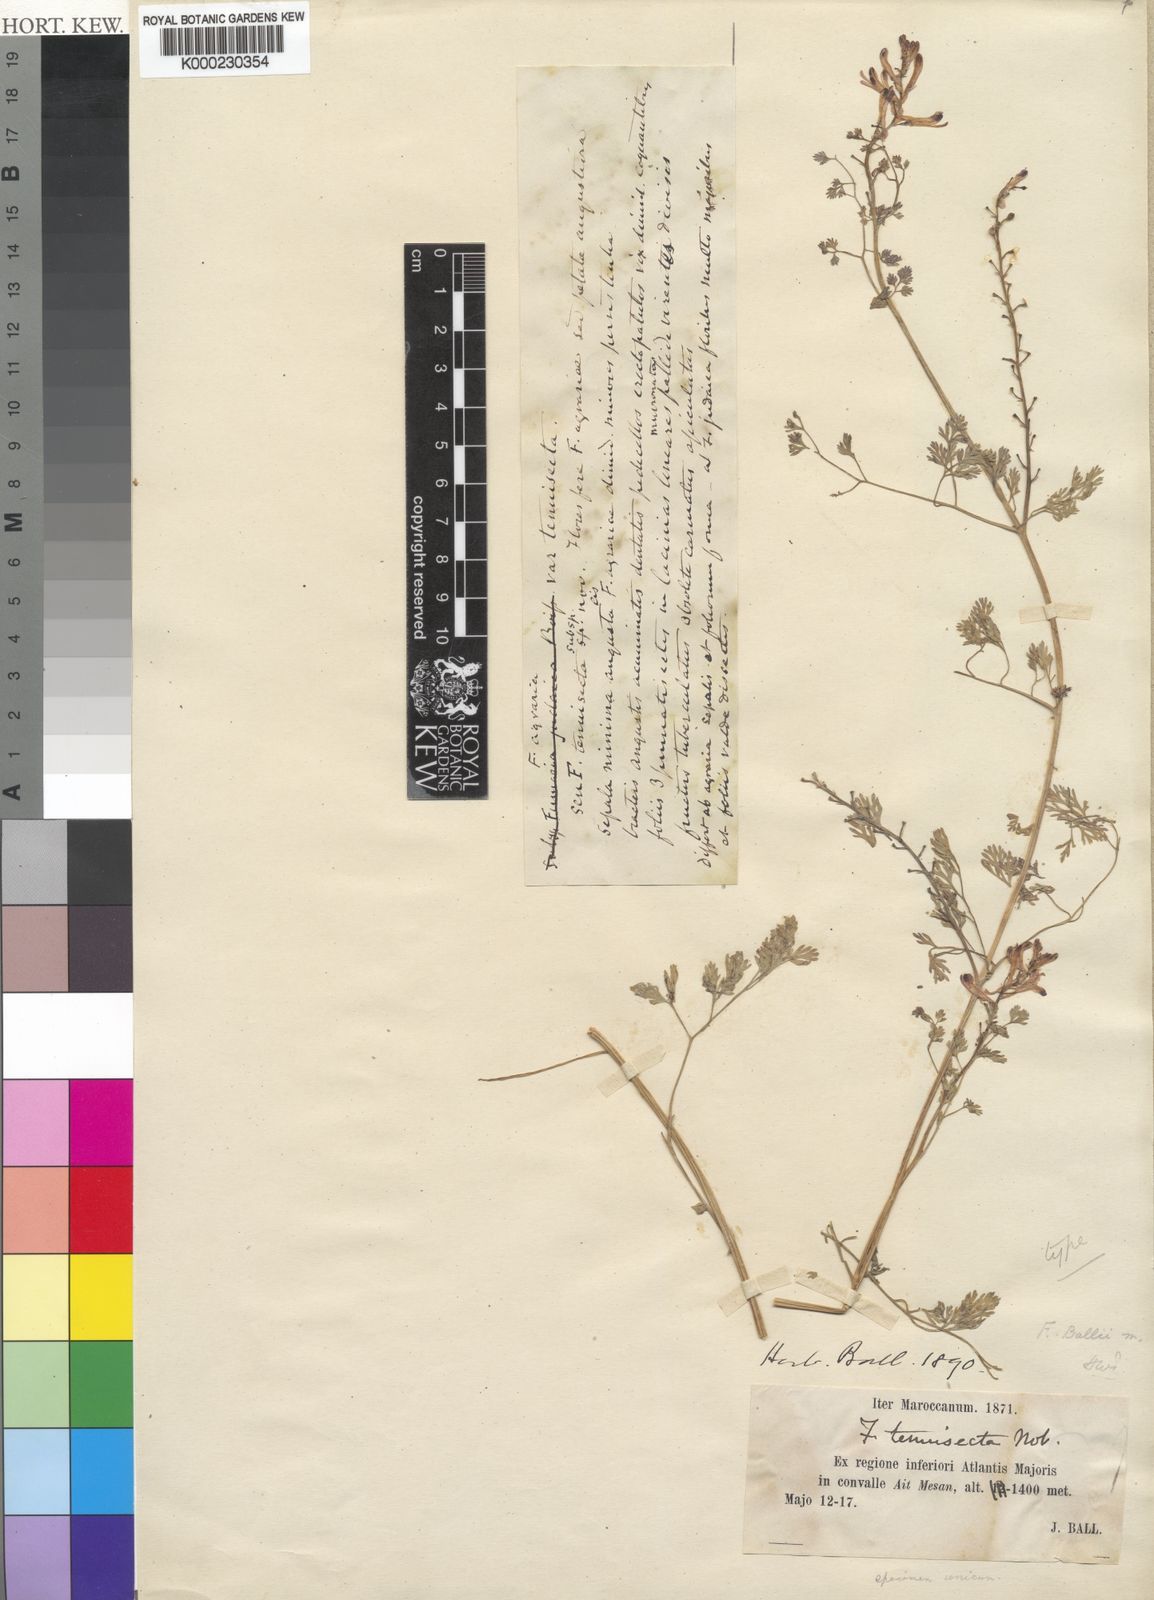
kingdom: Plantae
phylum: Tracheophyta
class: Magnoliopsida
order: Ranunculales
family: Papaveraceae
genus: Fumaria
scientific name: Fumaria ballii
